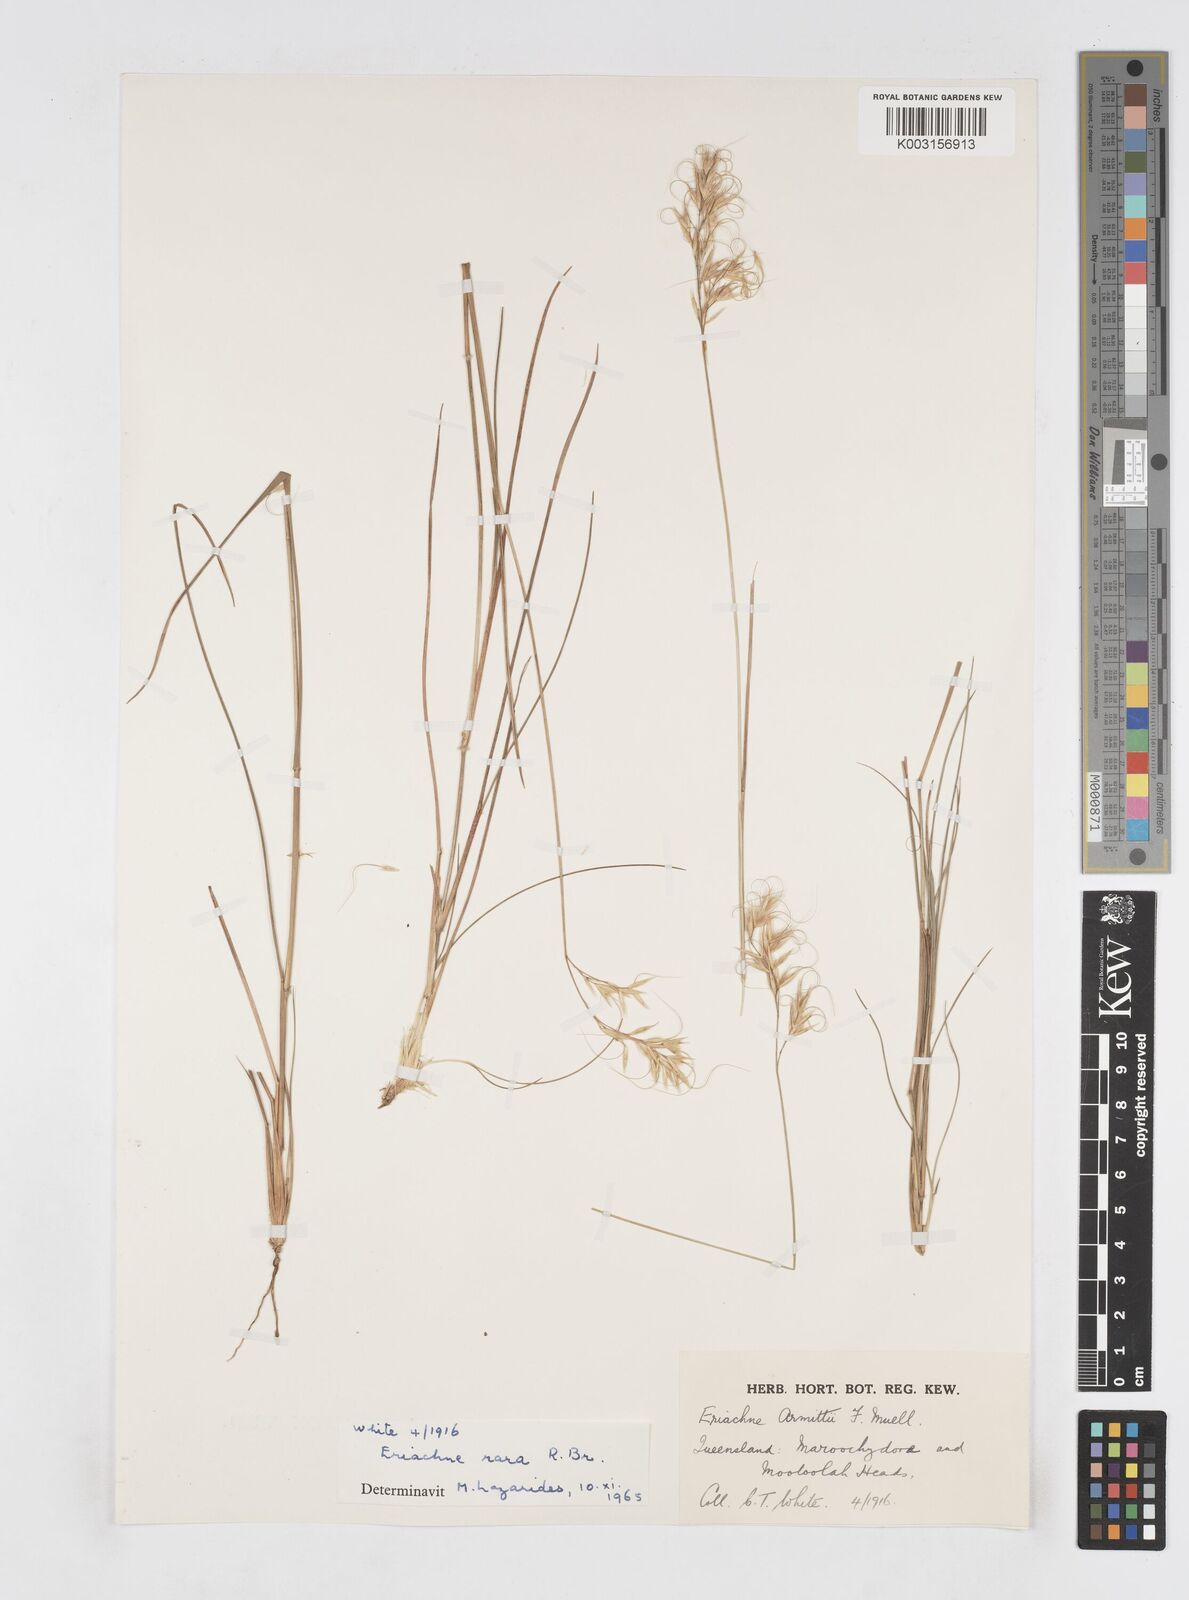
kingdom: Plantae
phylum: Tracheophyta
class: Liliopsida
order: Poales
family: Poaceae
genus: Eriachne
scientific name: Eriachne rara
